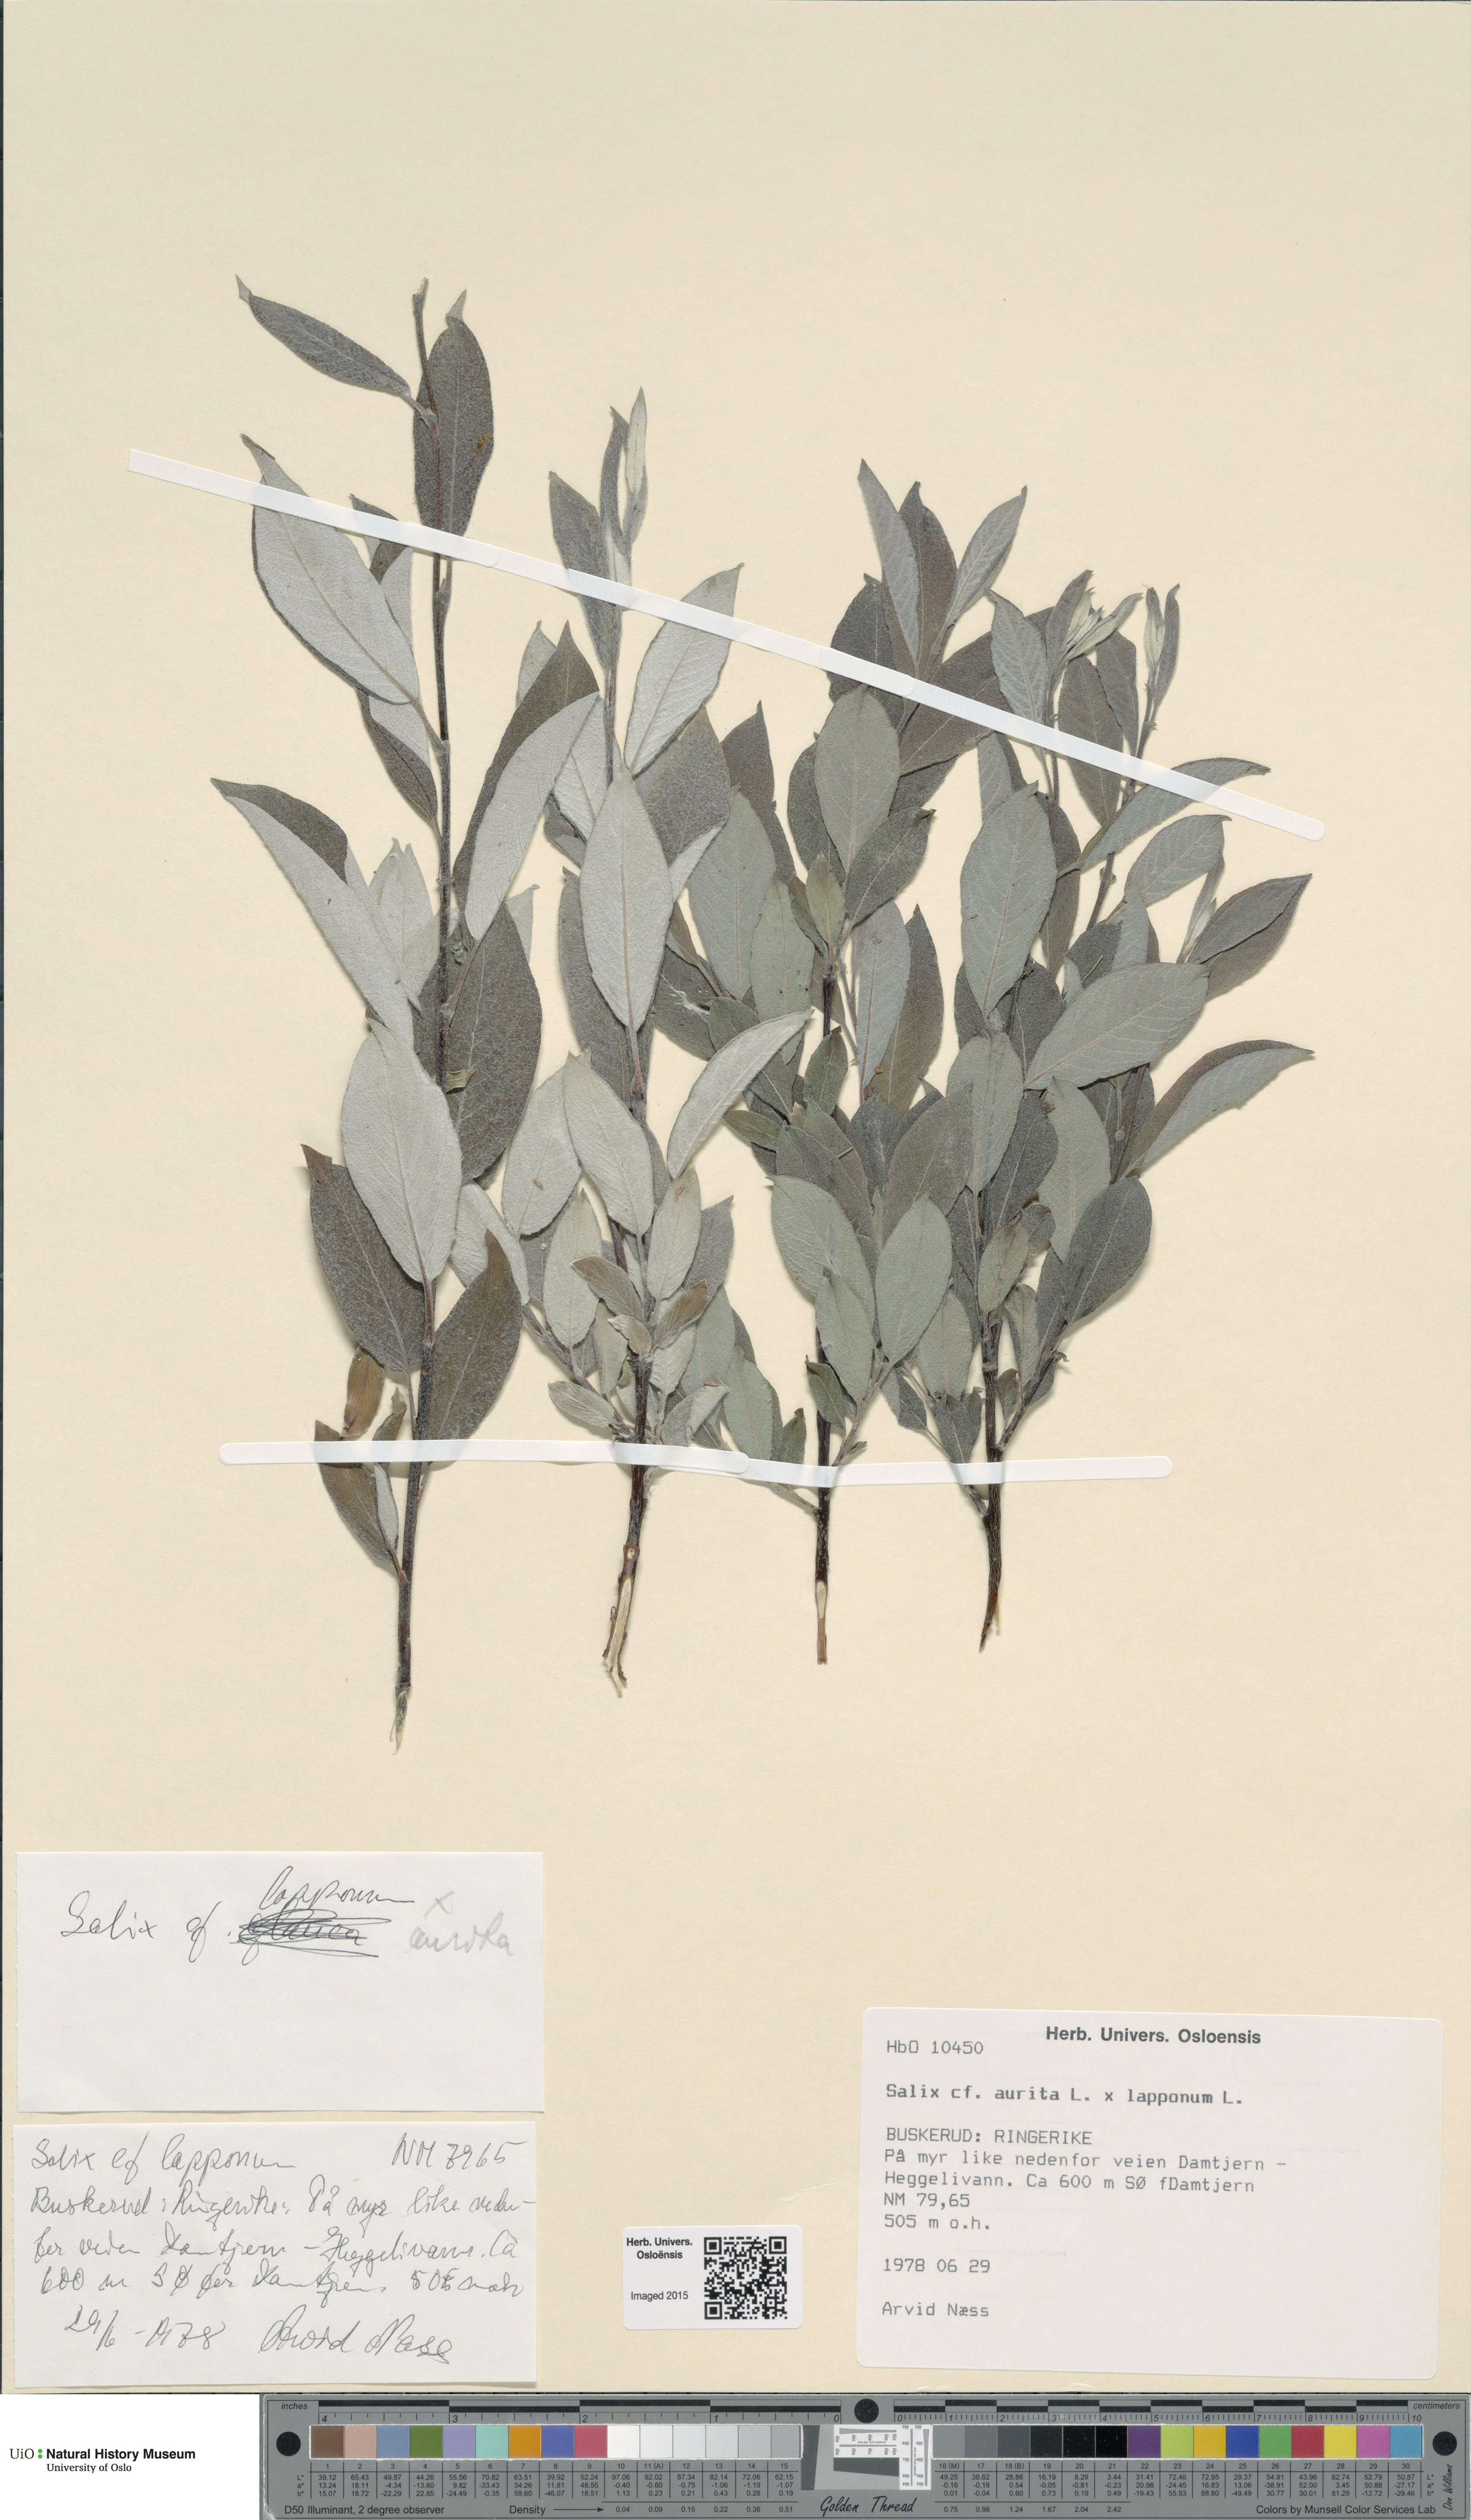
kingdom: Plantae
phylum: Tracheophyta
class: Magnoliopsida
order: Malpighiales
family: Salicaceae
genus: Salix
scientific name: Salix
